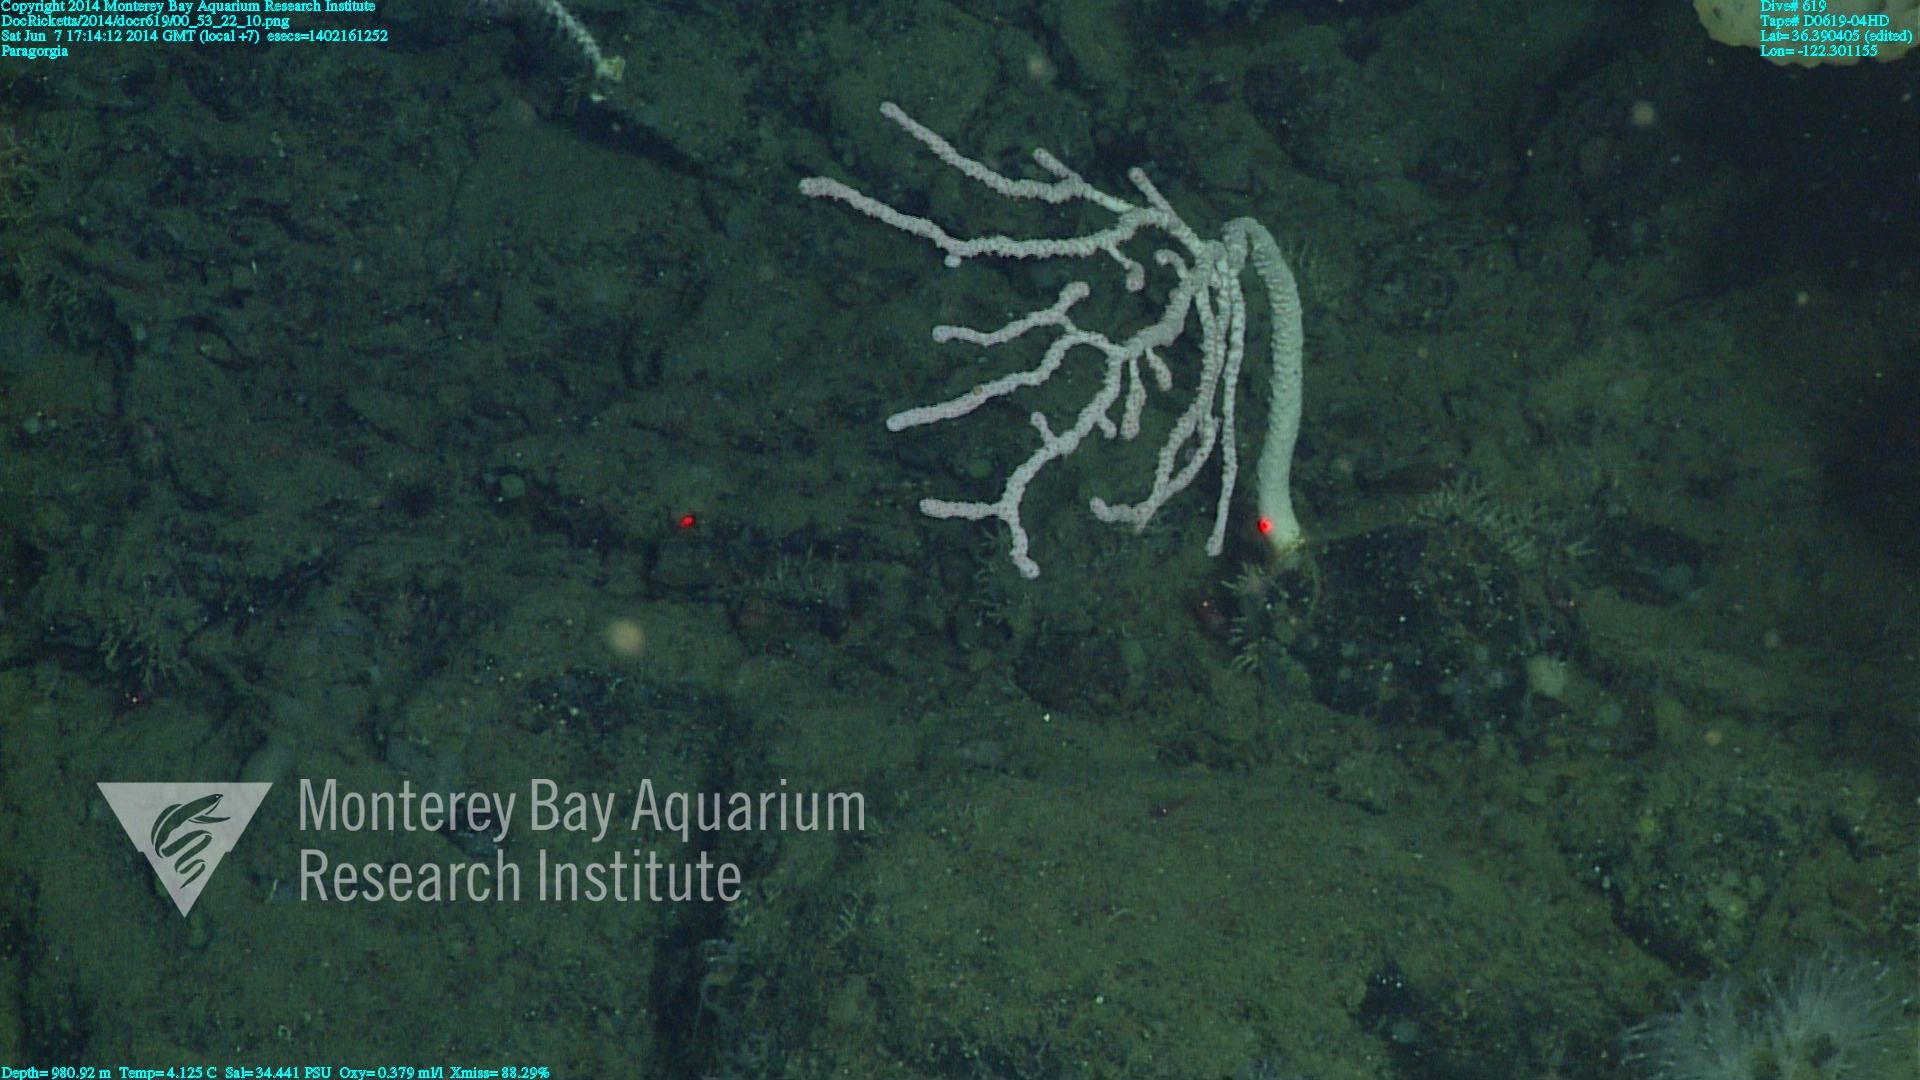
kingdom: Animalia
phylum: Cnidaria
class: Anthozoa
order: Scleralcyonacea
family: Coralliidae
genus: Paragorgia
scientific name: Paragorgia
